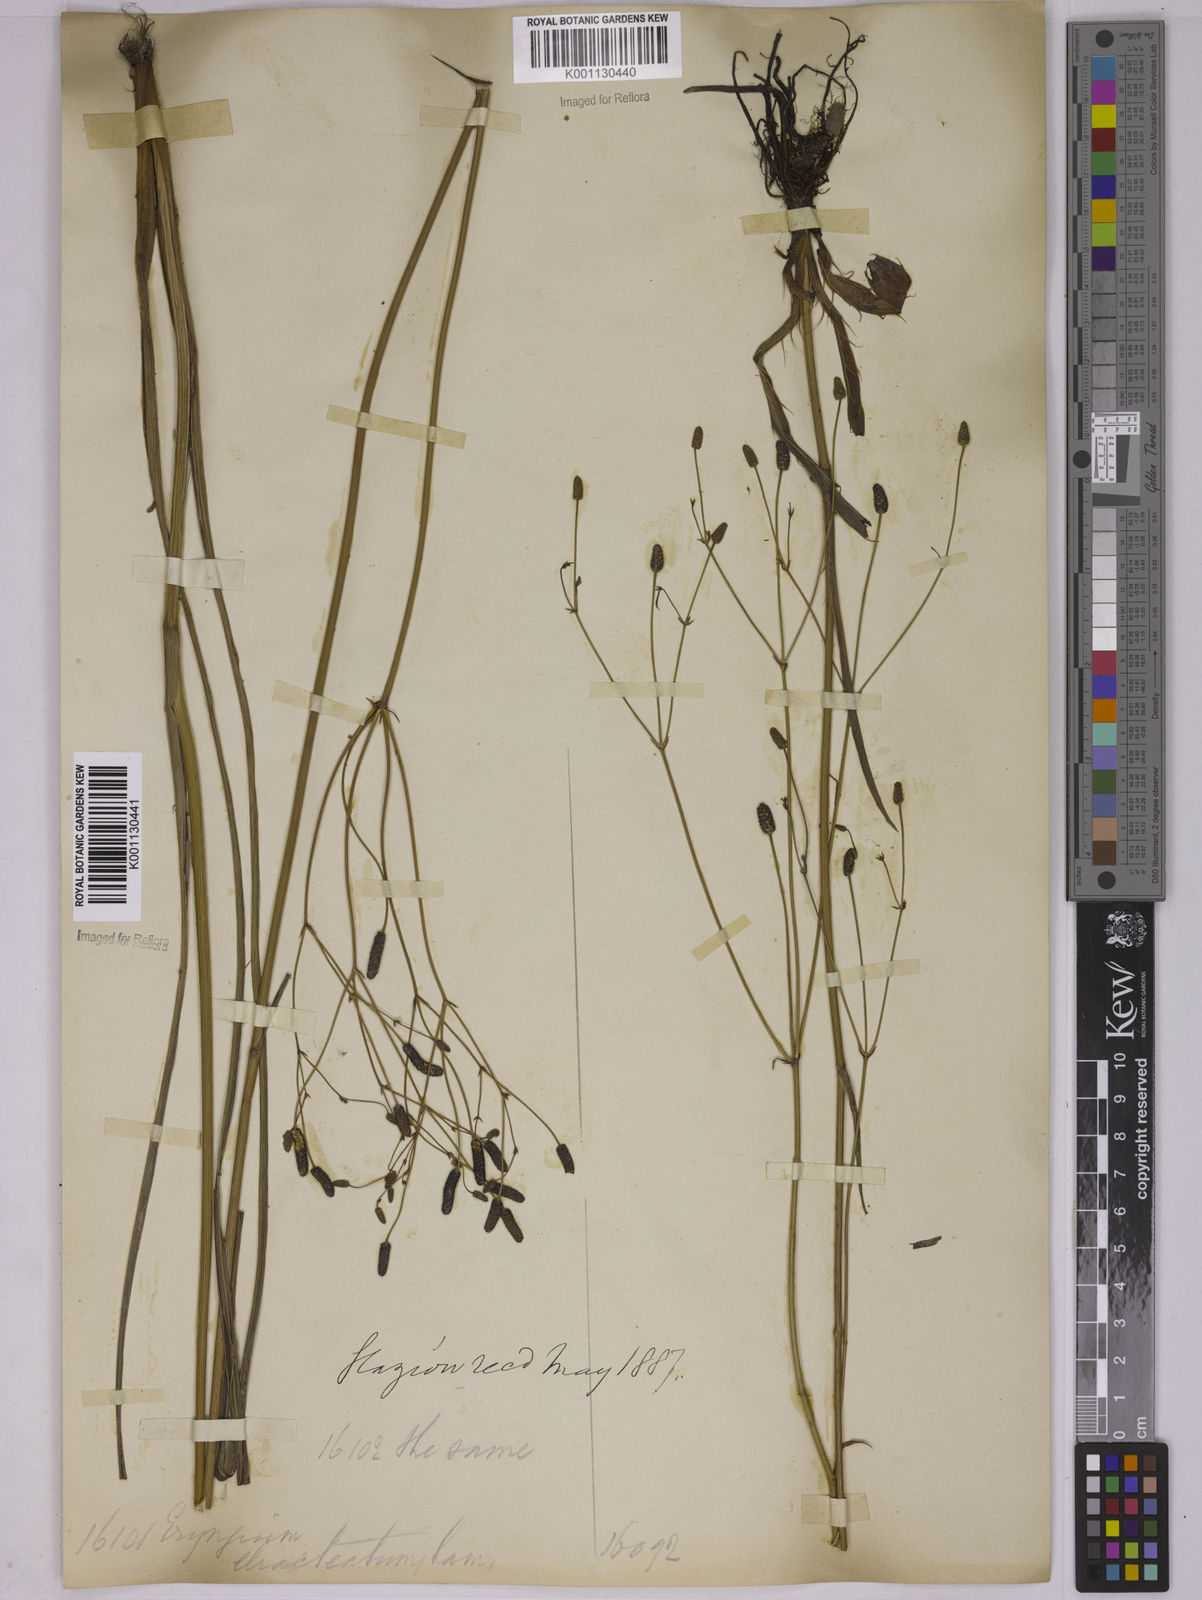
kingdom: Plantae
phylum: Tracheophyta
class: Magnoliopsida
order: Apiales
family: Apiaceae
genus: Eryngium
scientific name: Eryngium ebracteatum
